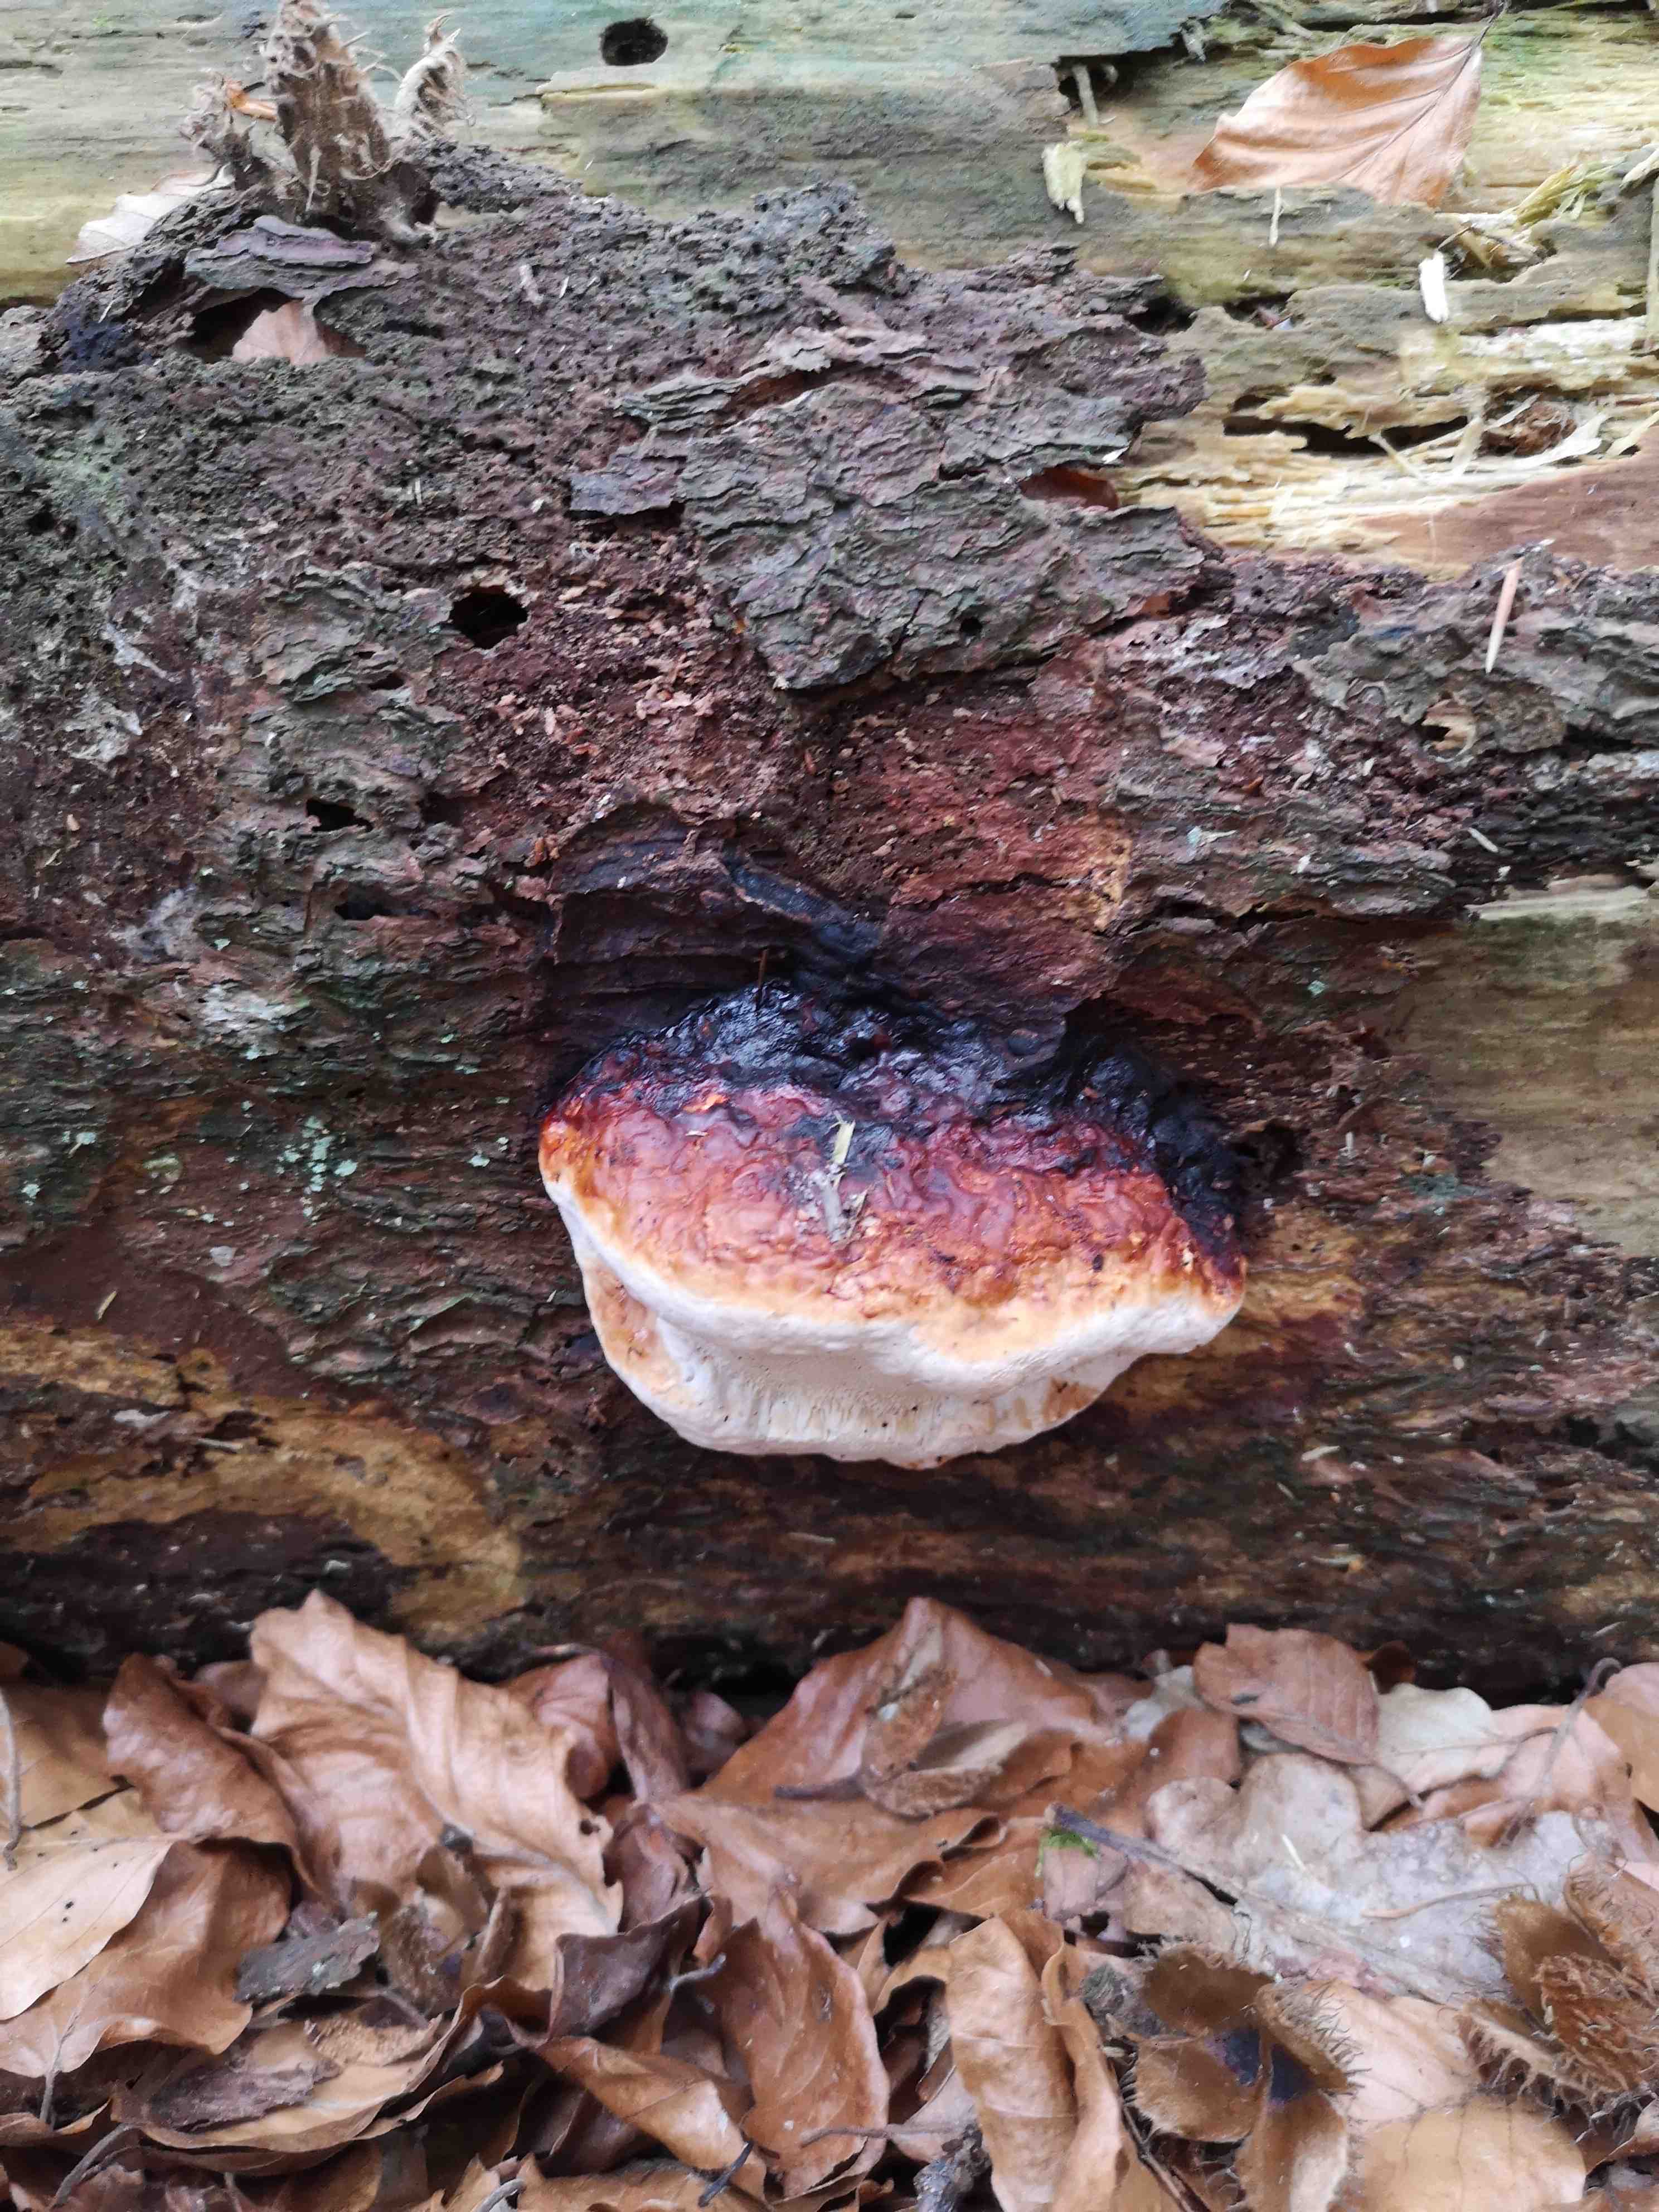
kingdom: Fungi
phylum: Basidiomycota
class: Agaricomycetes
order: Polyporales
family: Fomitopsidaceae
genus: Fomitopsis
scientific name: Fomitopsis pinicola
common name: randbæltet hovporesvamp
